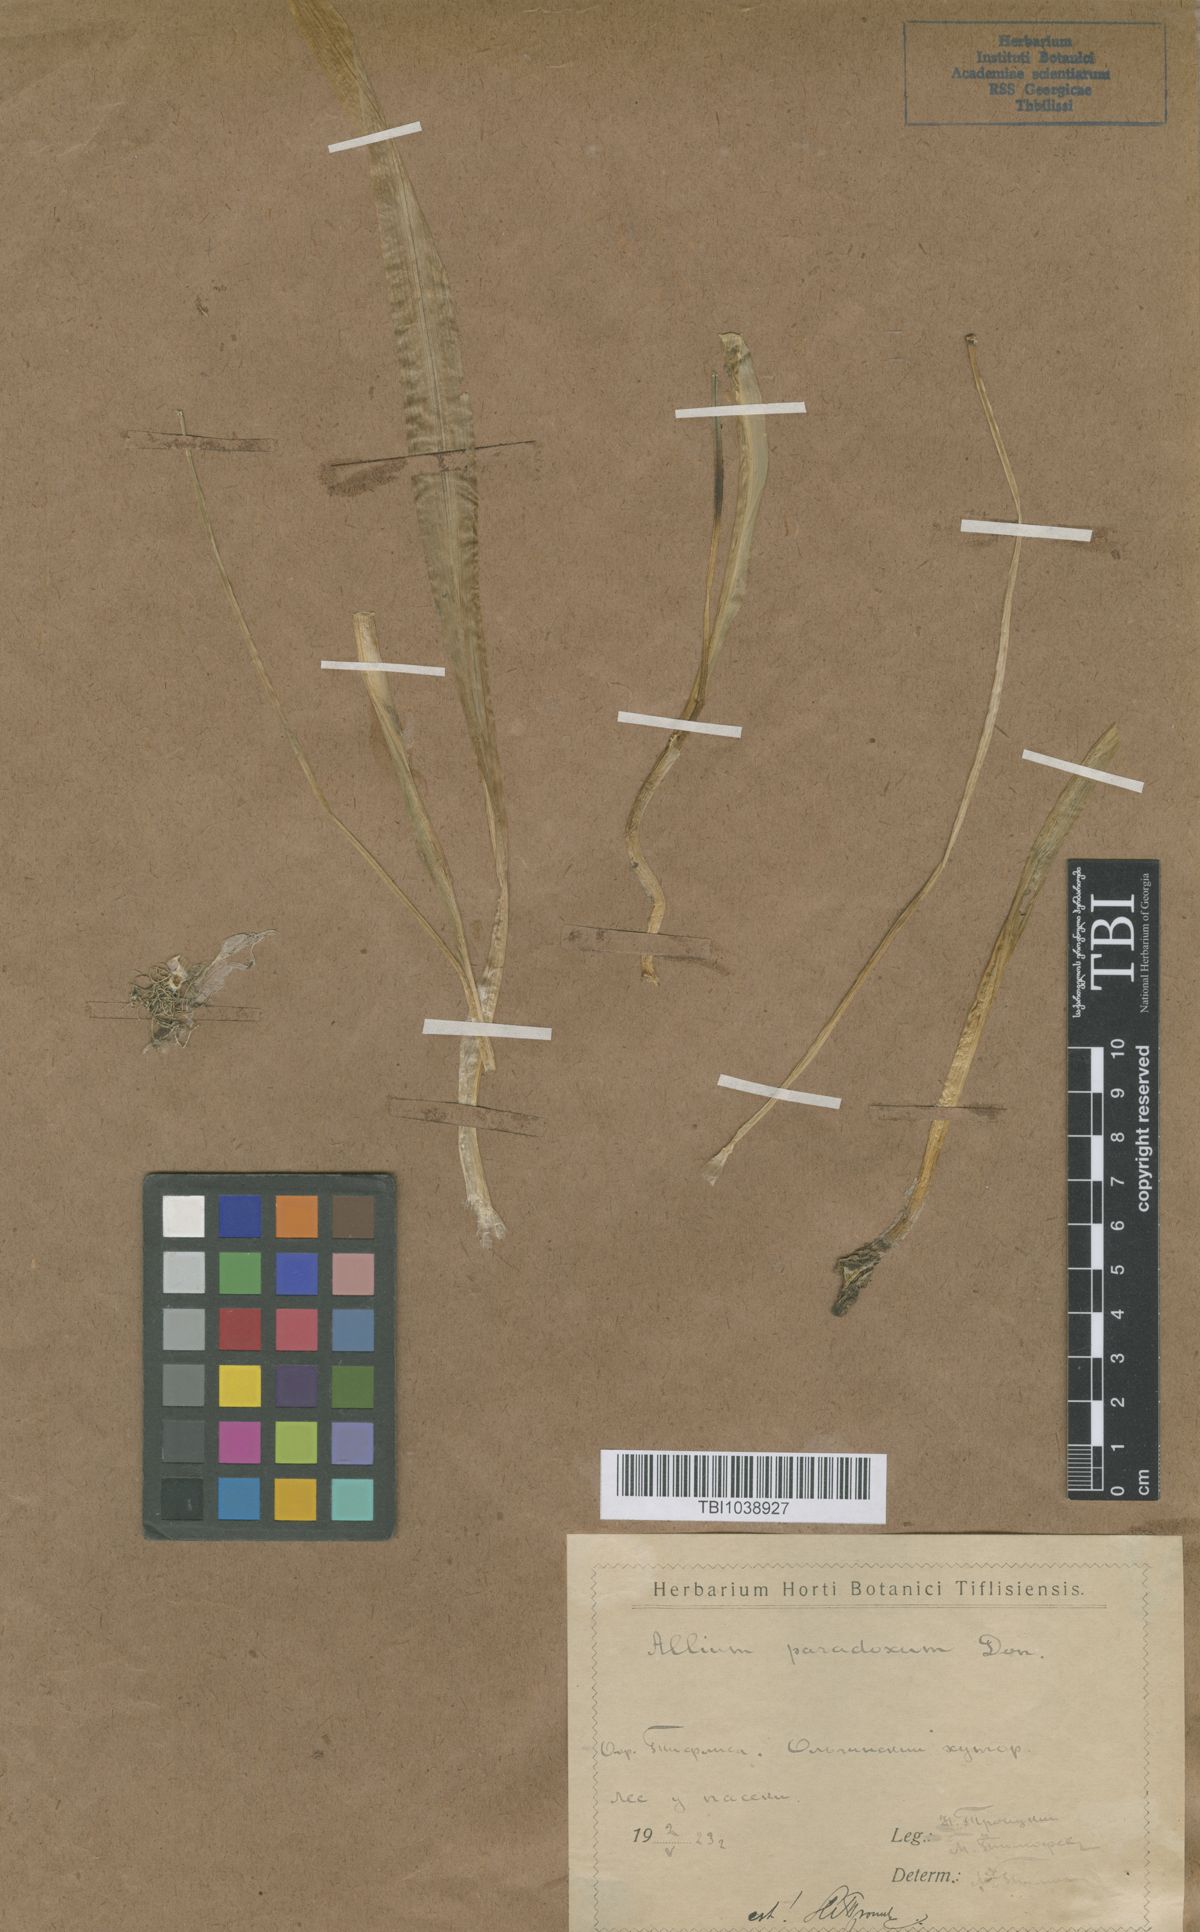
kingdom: Plantae
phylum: Tracheophyta
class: Liliopsida
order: Asparagales
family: Amaryllidaceae
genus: Allium
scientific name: Allium paradoxum
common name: Few-flowered garlic
